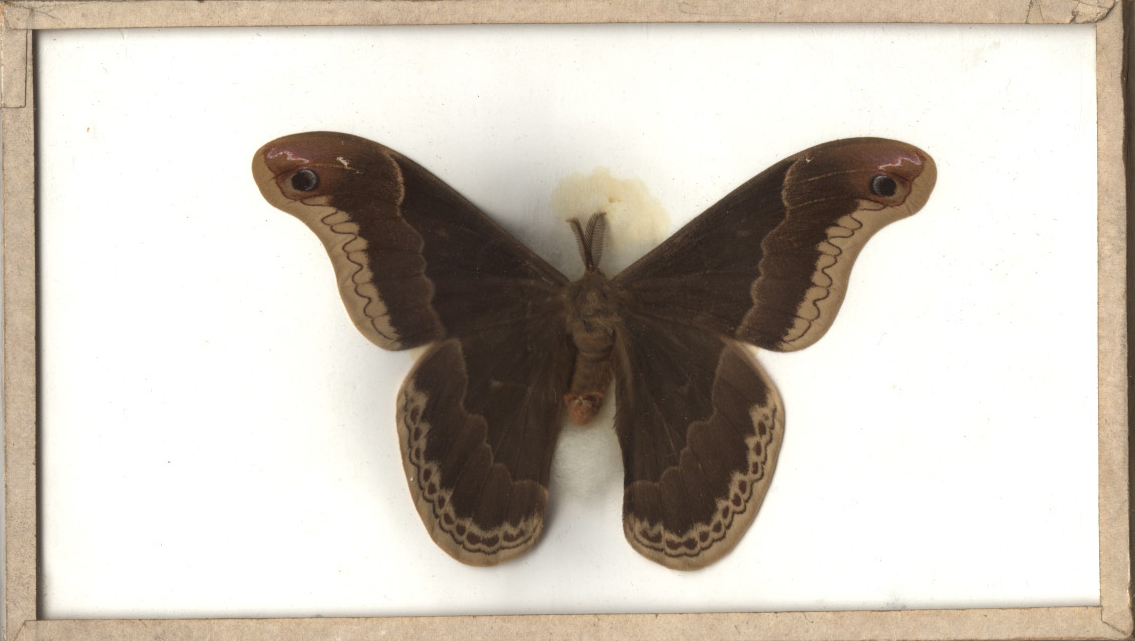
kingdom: Animalia
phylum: Arthropoda
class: Insecta
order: Lepidoptera
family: Saturniidae
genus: Callosamia
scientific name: Callosamia promethea
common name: Promethea Moth
